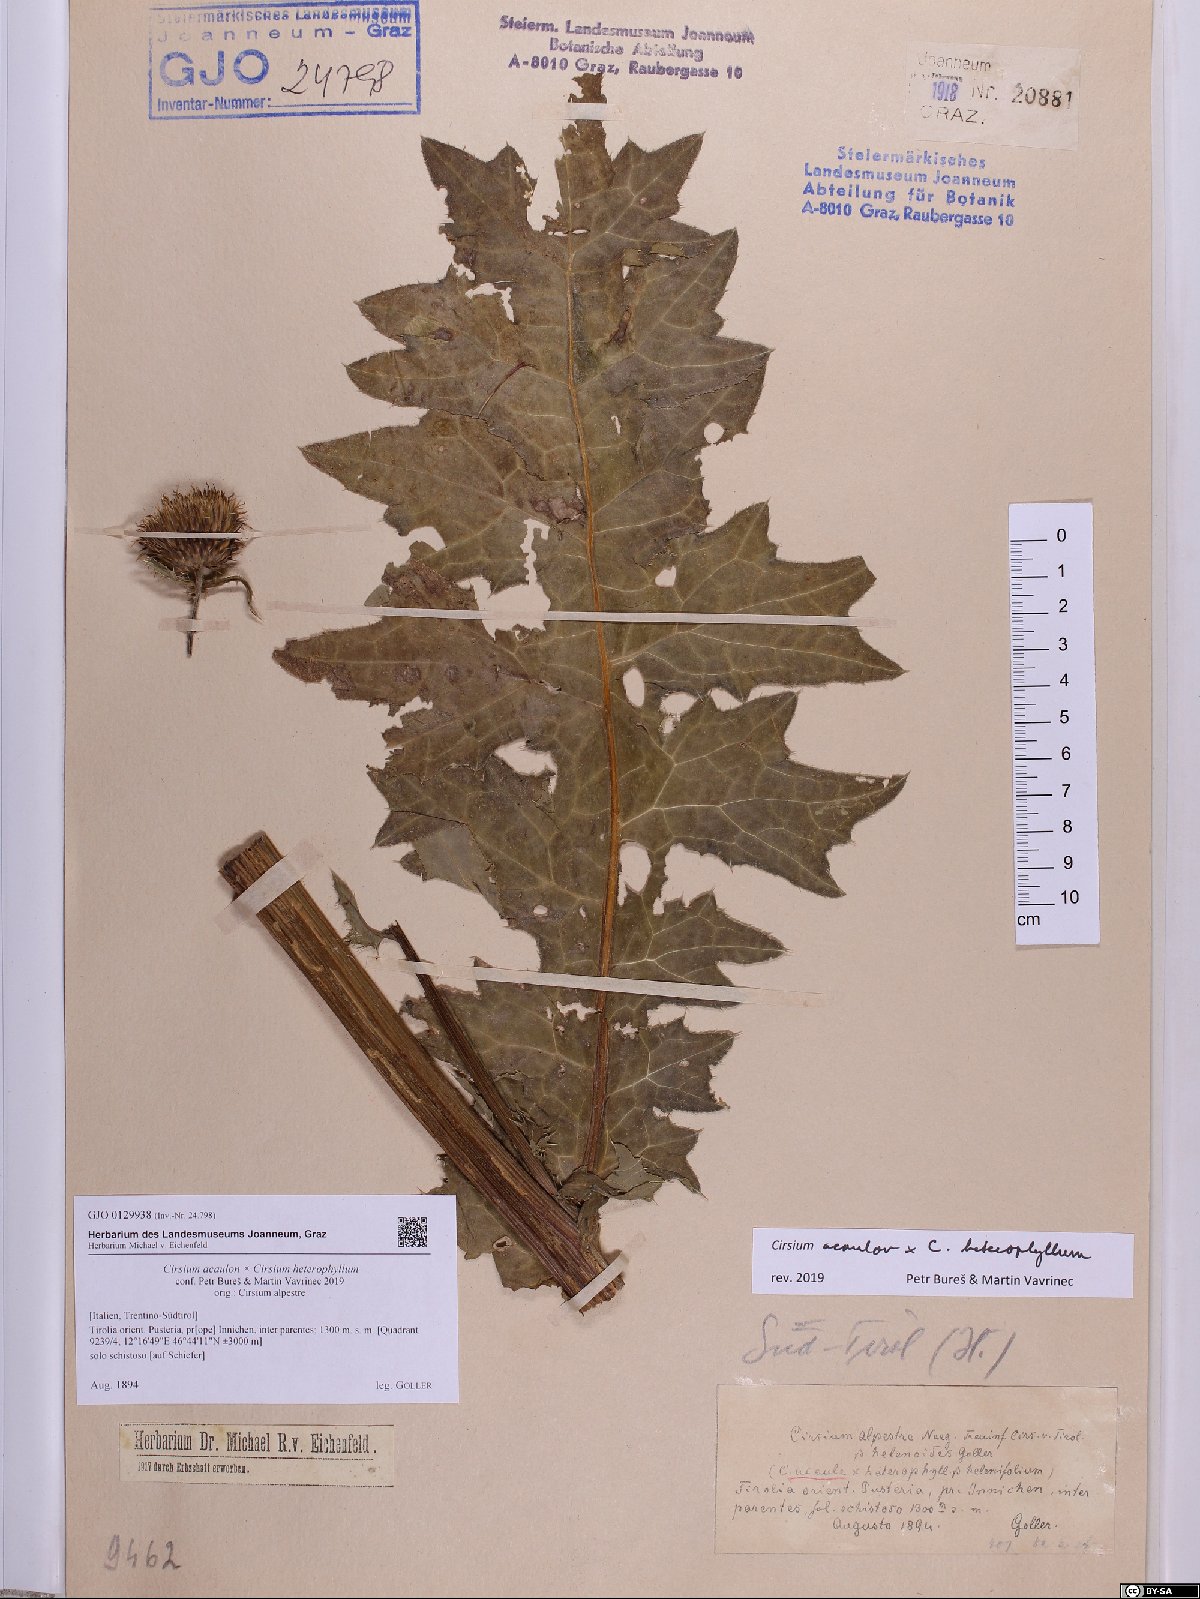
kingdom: Plantae
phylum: Tracheophyta
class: Magnoliopsida
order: Asterales
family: Asteraceae
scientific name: Asteraceae
